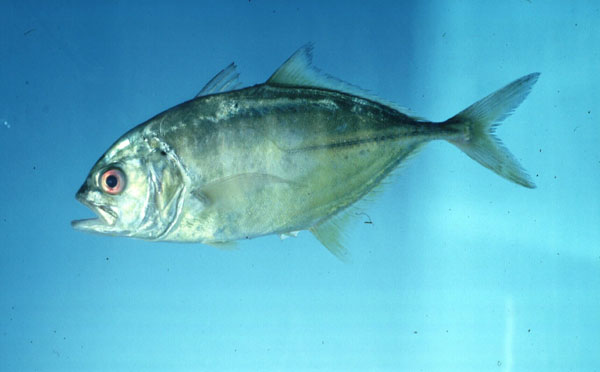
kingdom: Animalia
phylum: Chordata
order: Perciformes
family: Carangidae
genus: Caranx
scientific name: Caranx sexfasciatus
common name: Bigeye trevally
